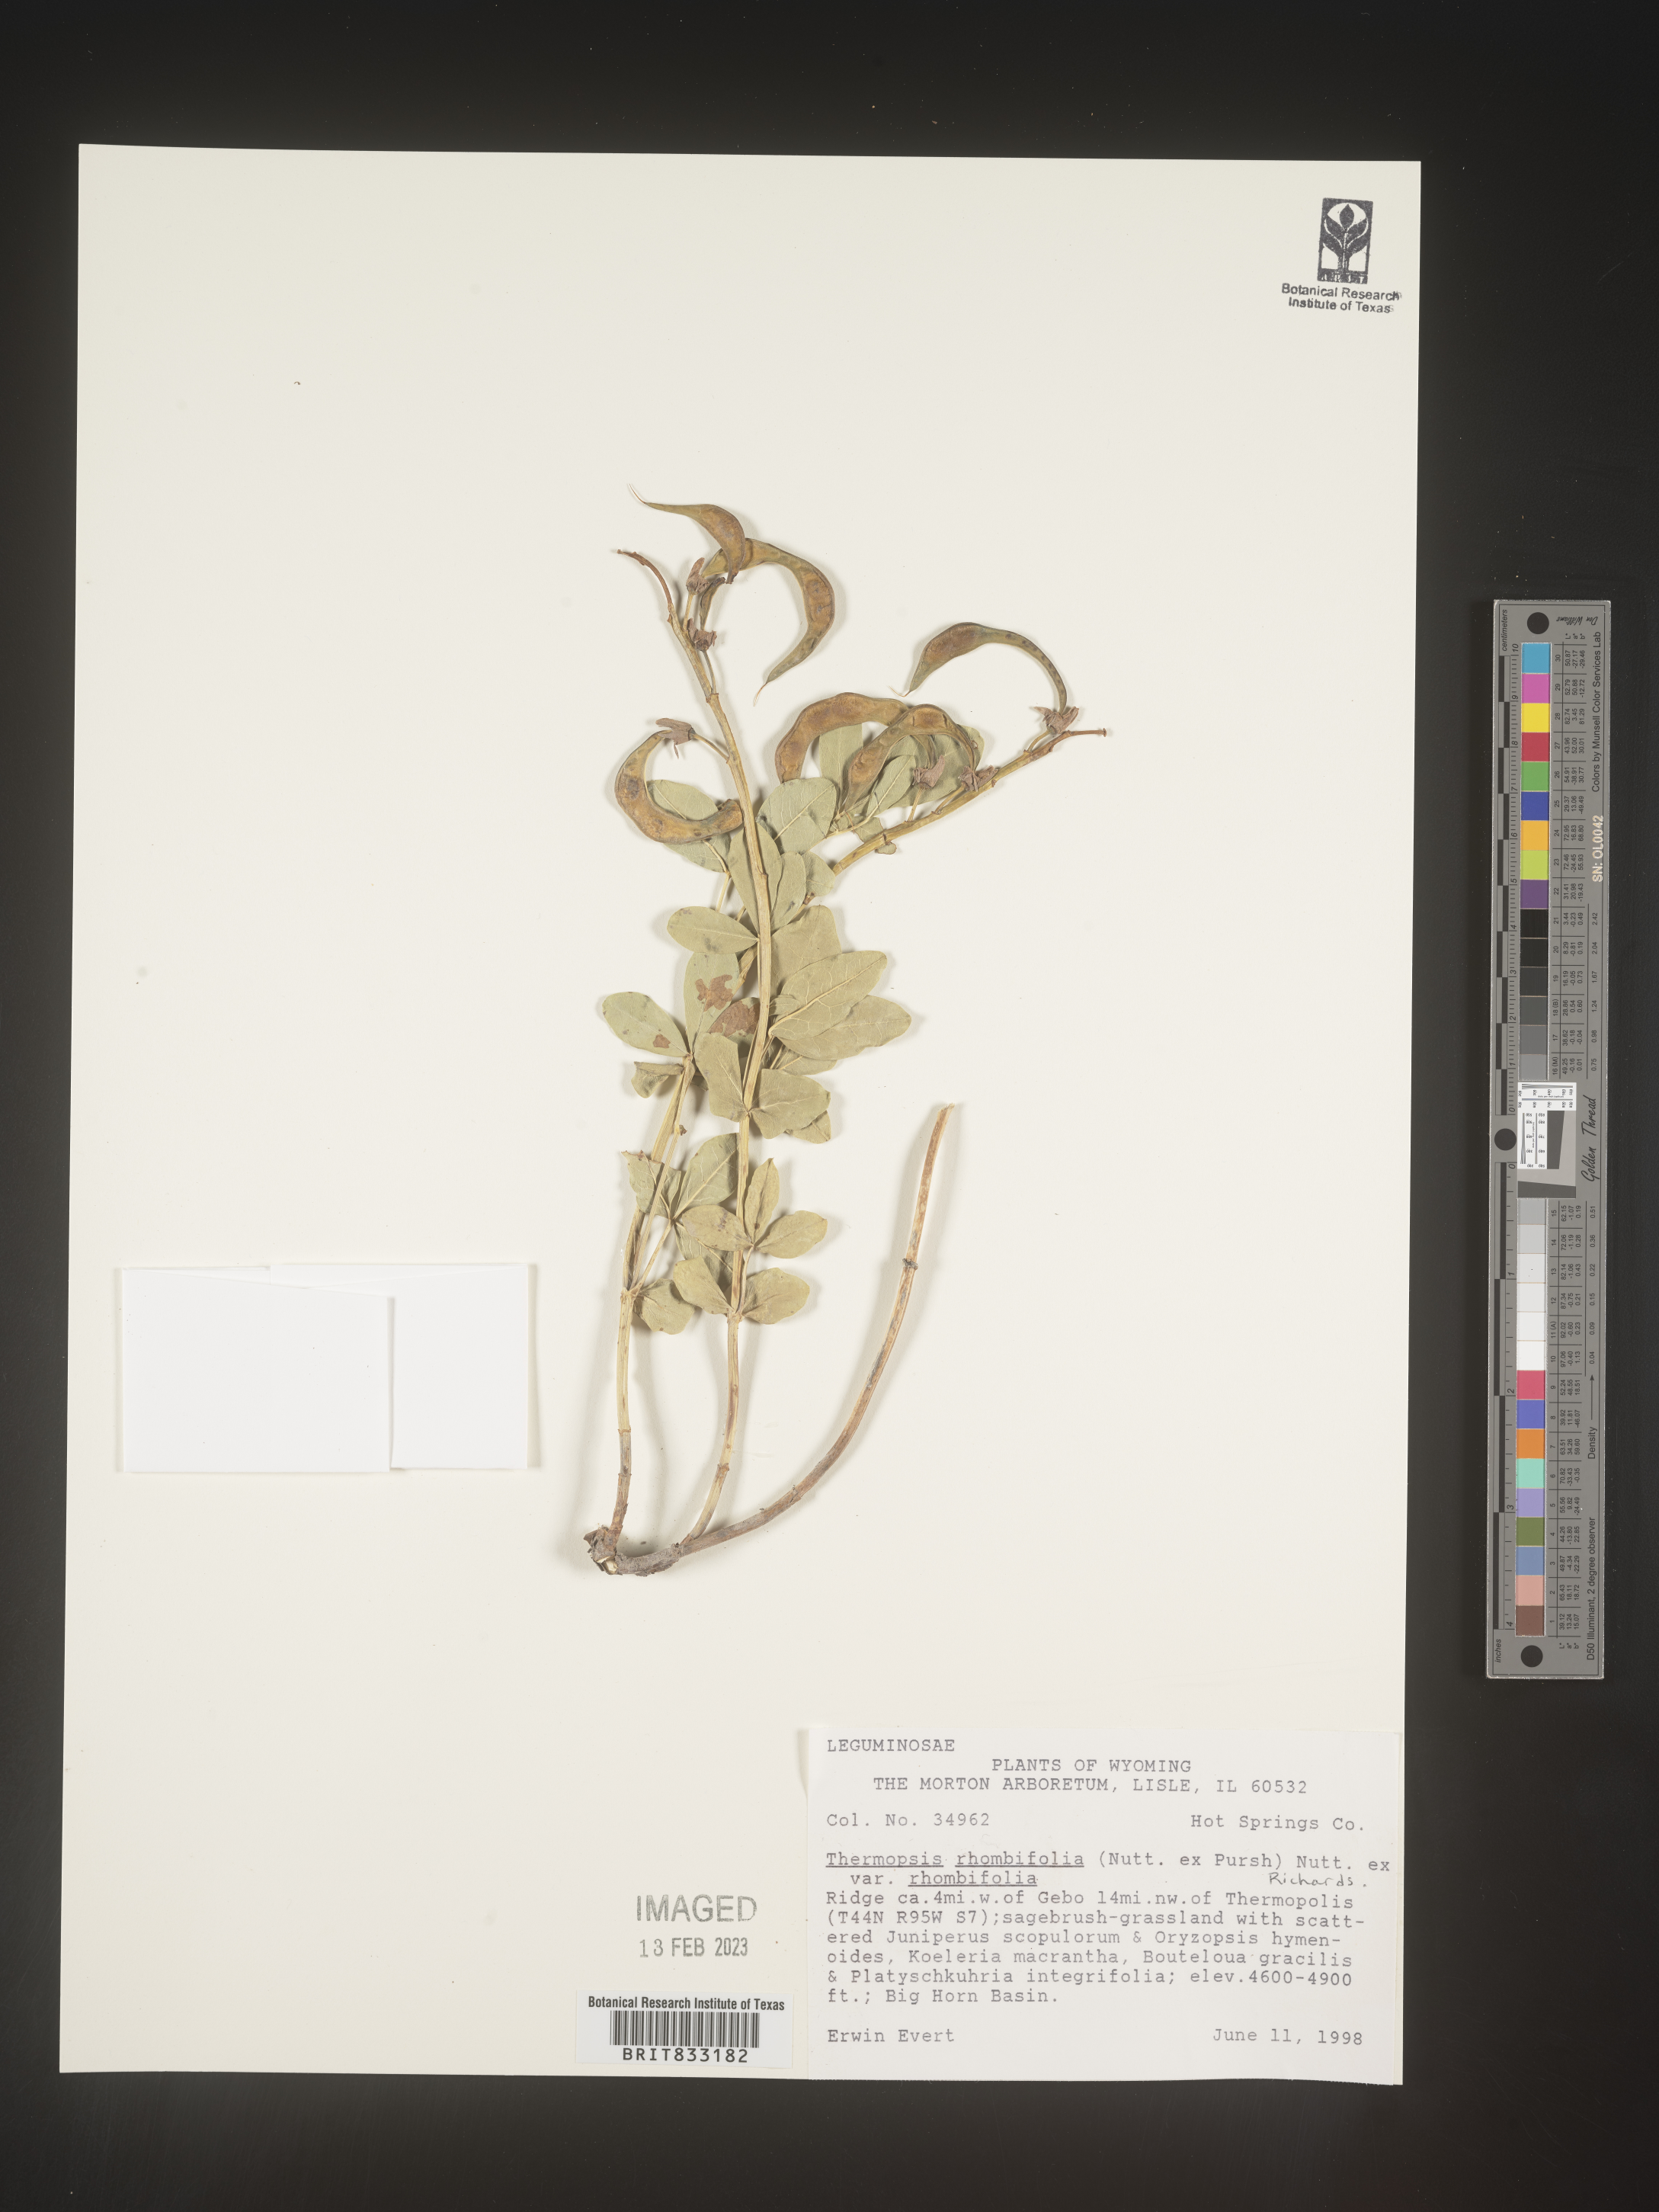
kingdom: Plantae
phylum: Tracheophyta
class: Magnoliopsida
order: Fabales
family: Fabaceae
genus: Thermopsis
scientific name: Thermopsis rhombifolia
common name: Circle-pod-pea
